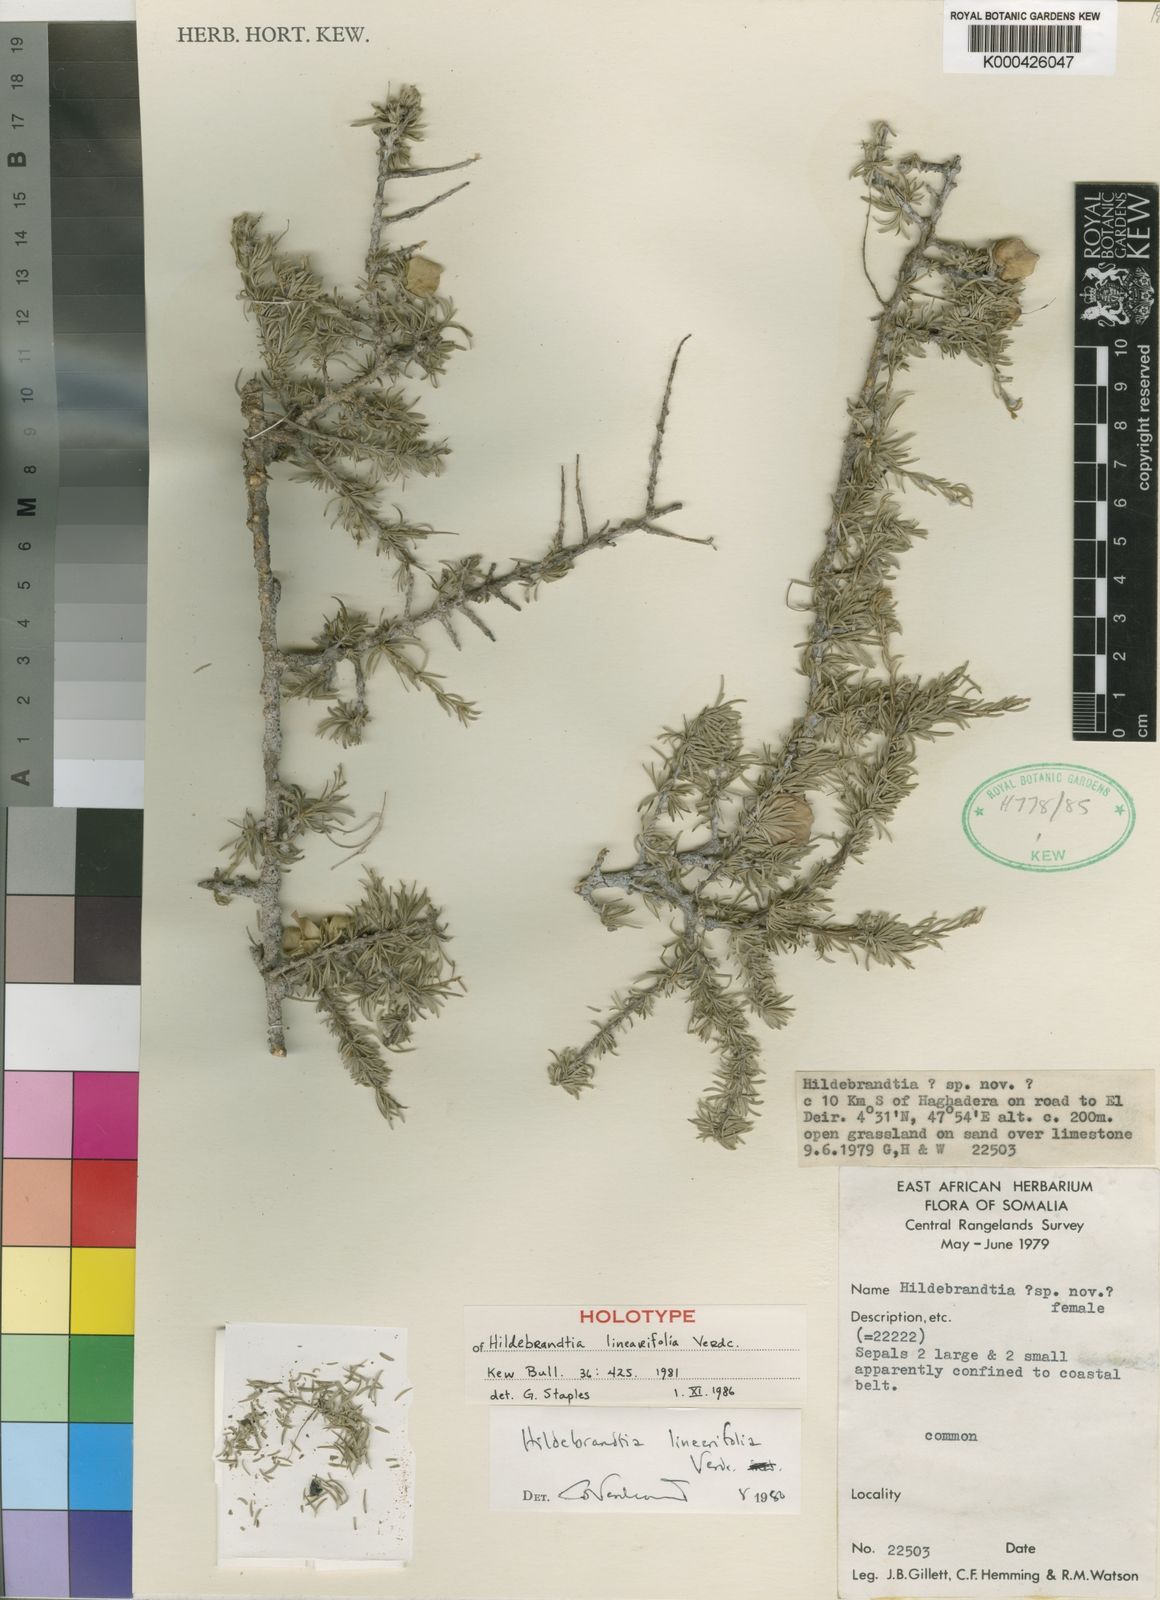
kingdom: Plantae
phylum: Tracheophyta
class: Magnoliopsida
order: Solanales
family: Convolvulaceae
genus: Hildebrandtia
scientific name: Hildebrandtia linearifolia
